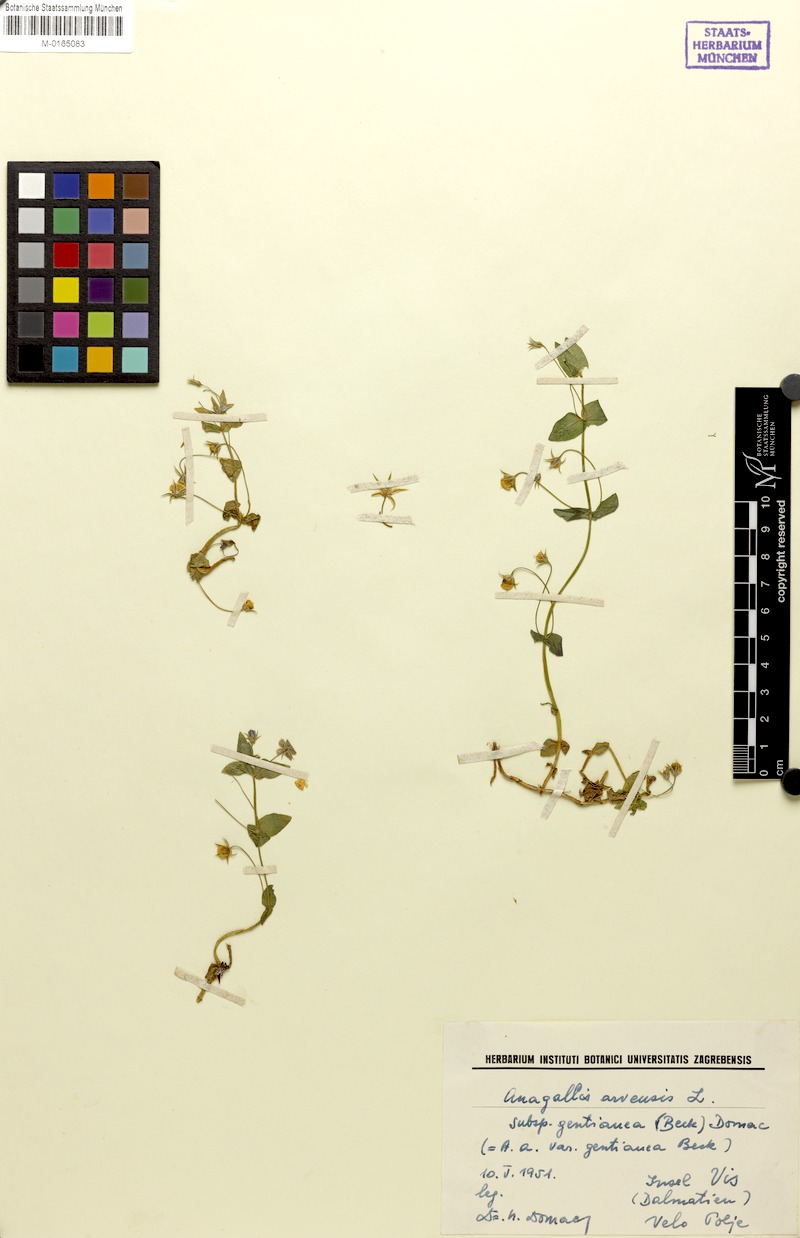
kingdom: Plantae
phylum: Tracheophyta
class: Magnoliopsida
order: Ericales
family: Primulaceae
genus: Lysimachia
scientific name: Lysimachia foemina
